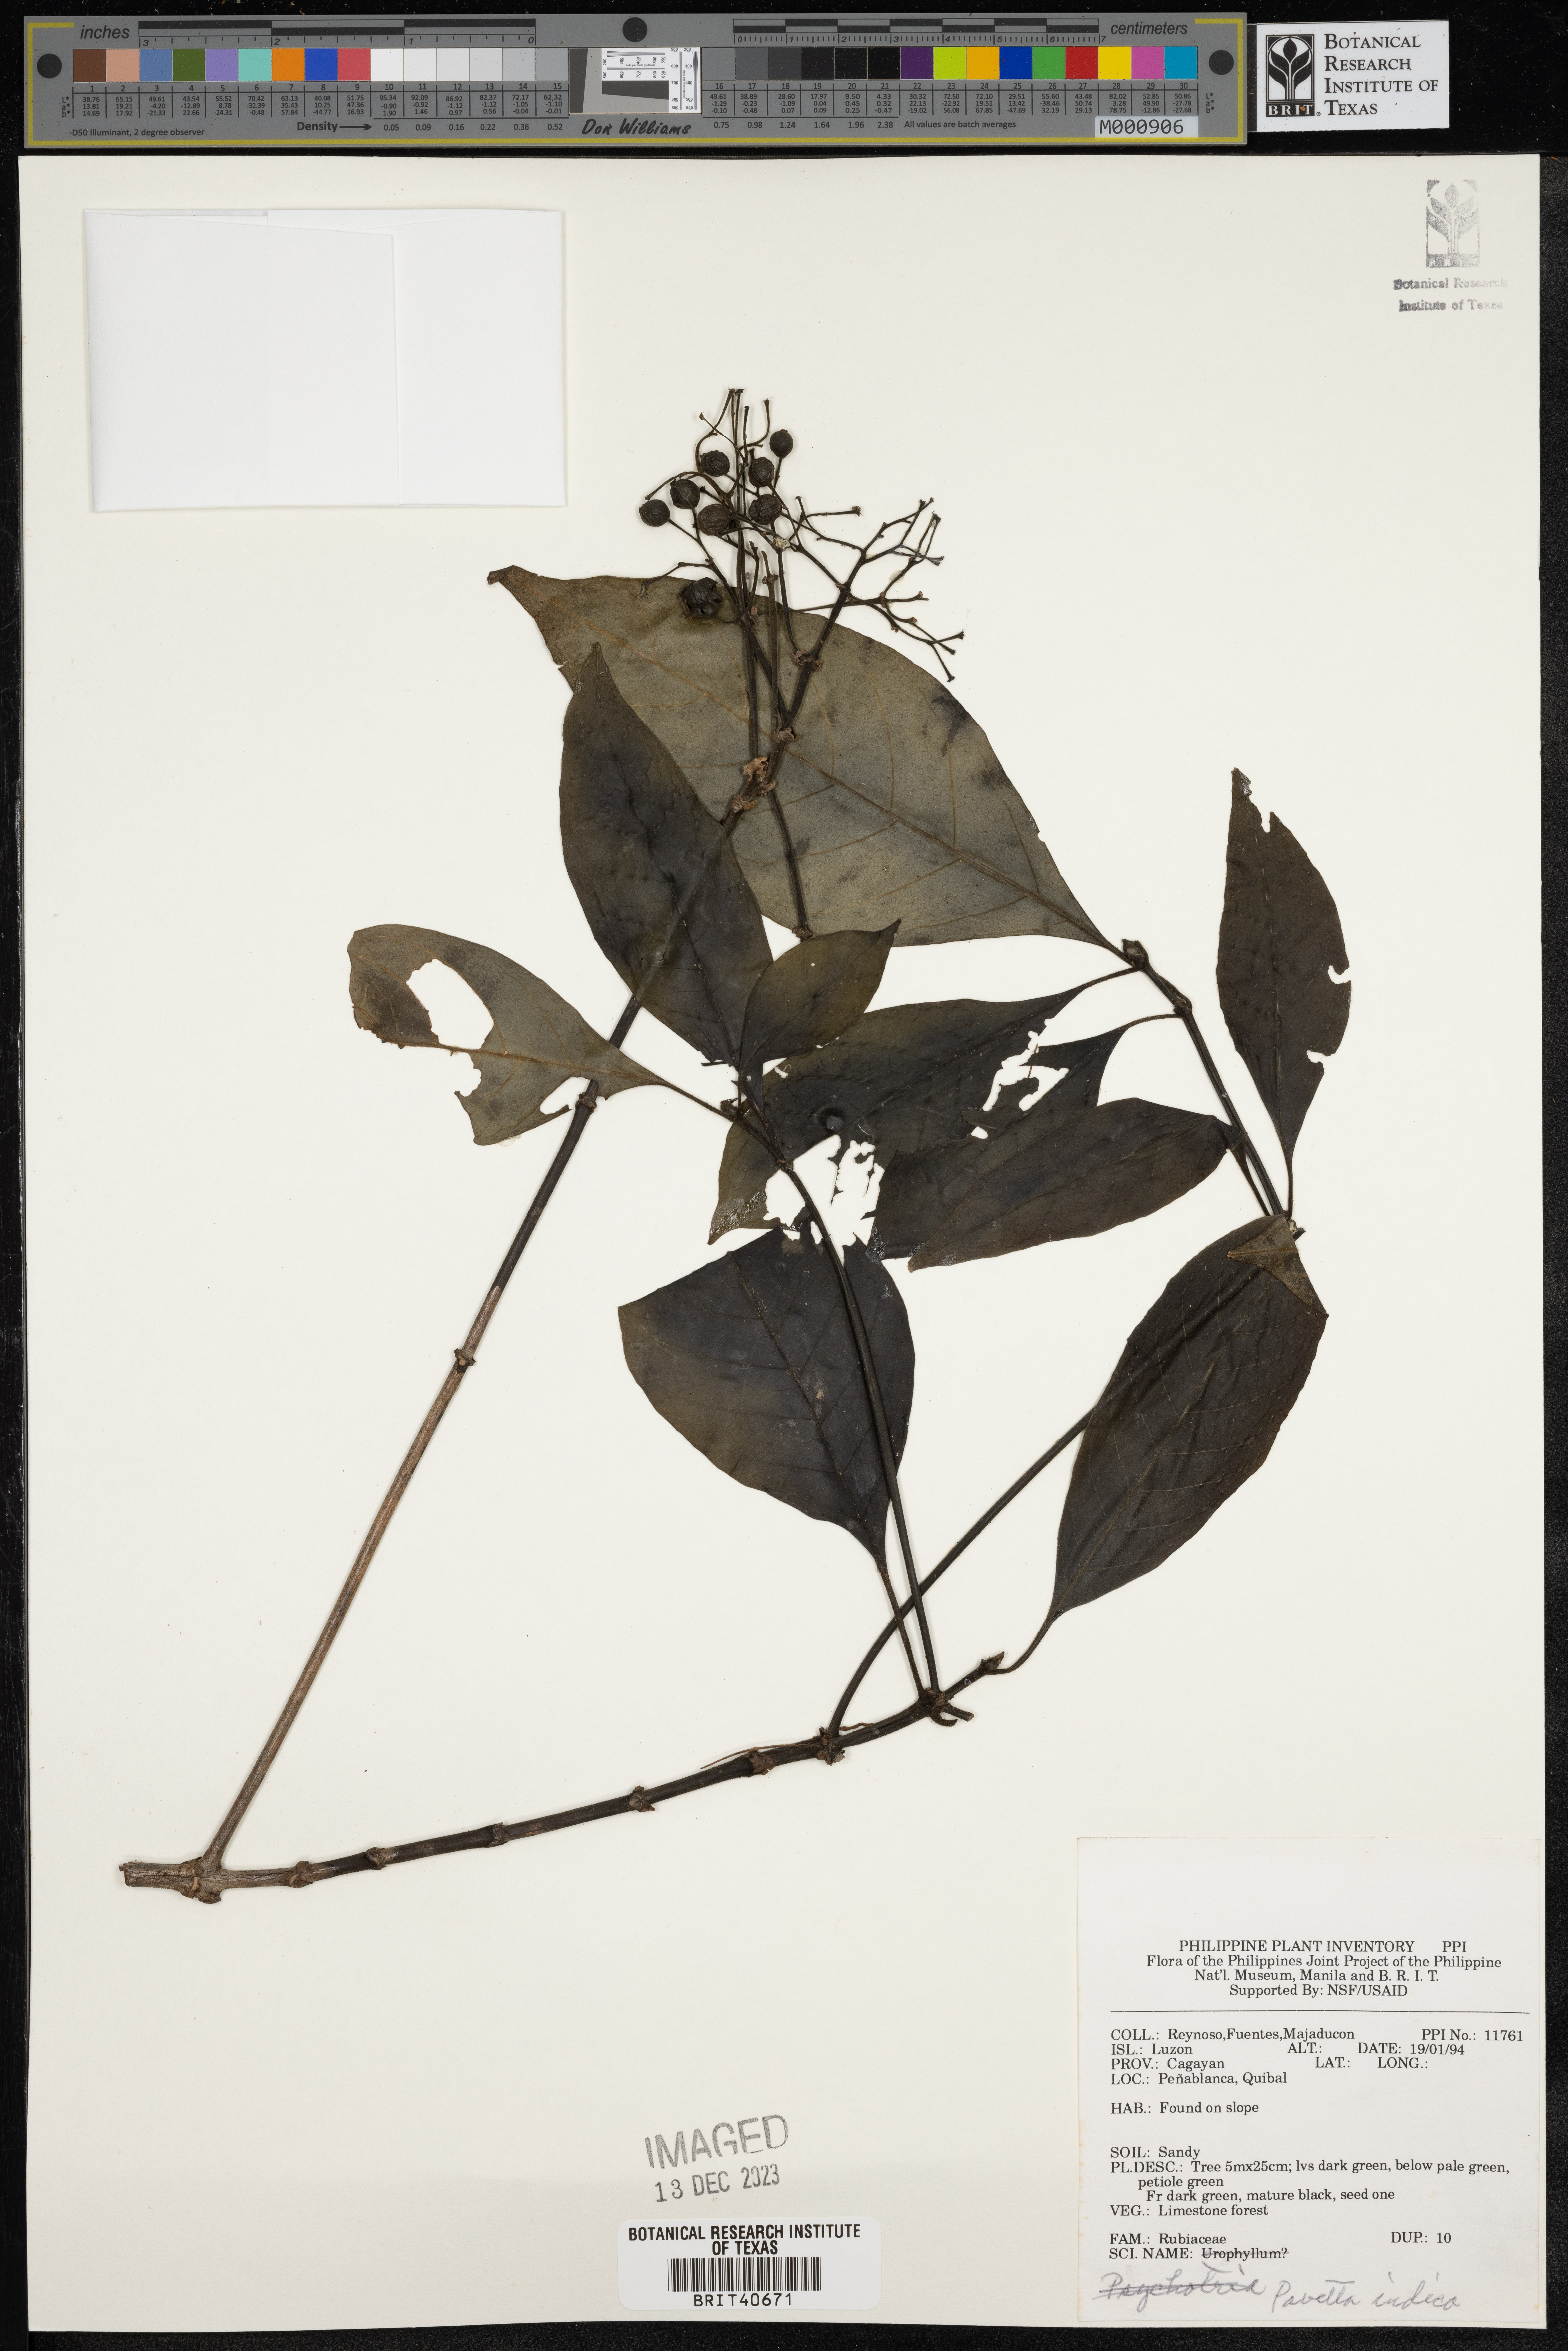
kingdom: Plantae
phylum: Tracheophyta
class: Magnoliopsida
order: Gentianales
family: Rubiaceae
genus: Pavetta
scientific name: Pavetta indica
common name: Indian pavetta
